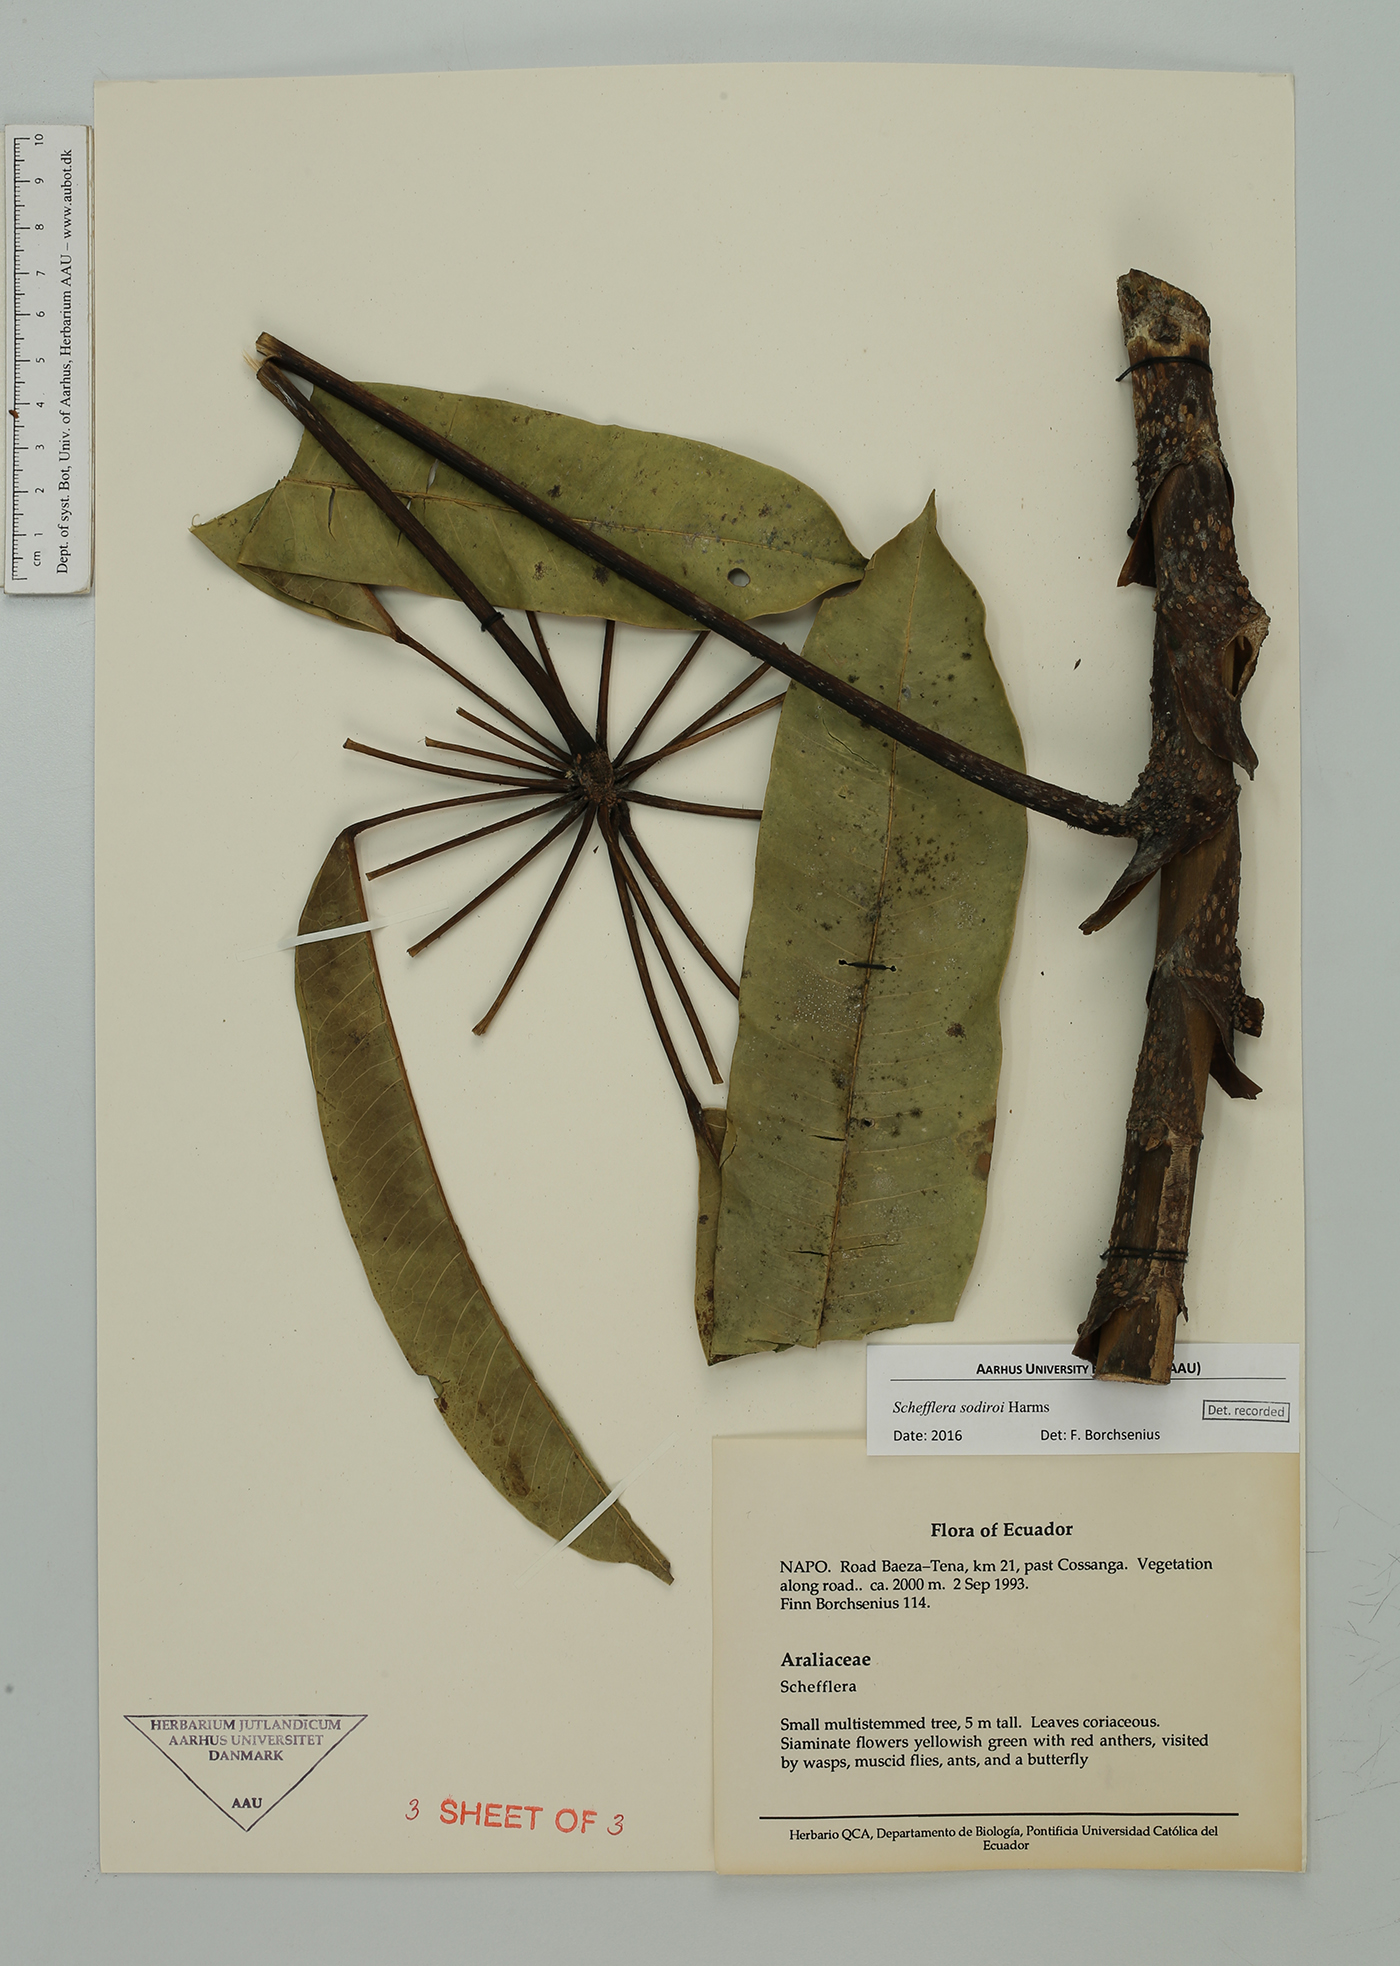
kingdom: Plantae
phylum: Tracheophyta
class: Magnoliopsida
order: Apiales
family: Araliaceae
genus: Schefflera
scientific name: Schefflera
